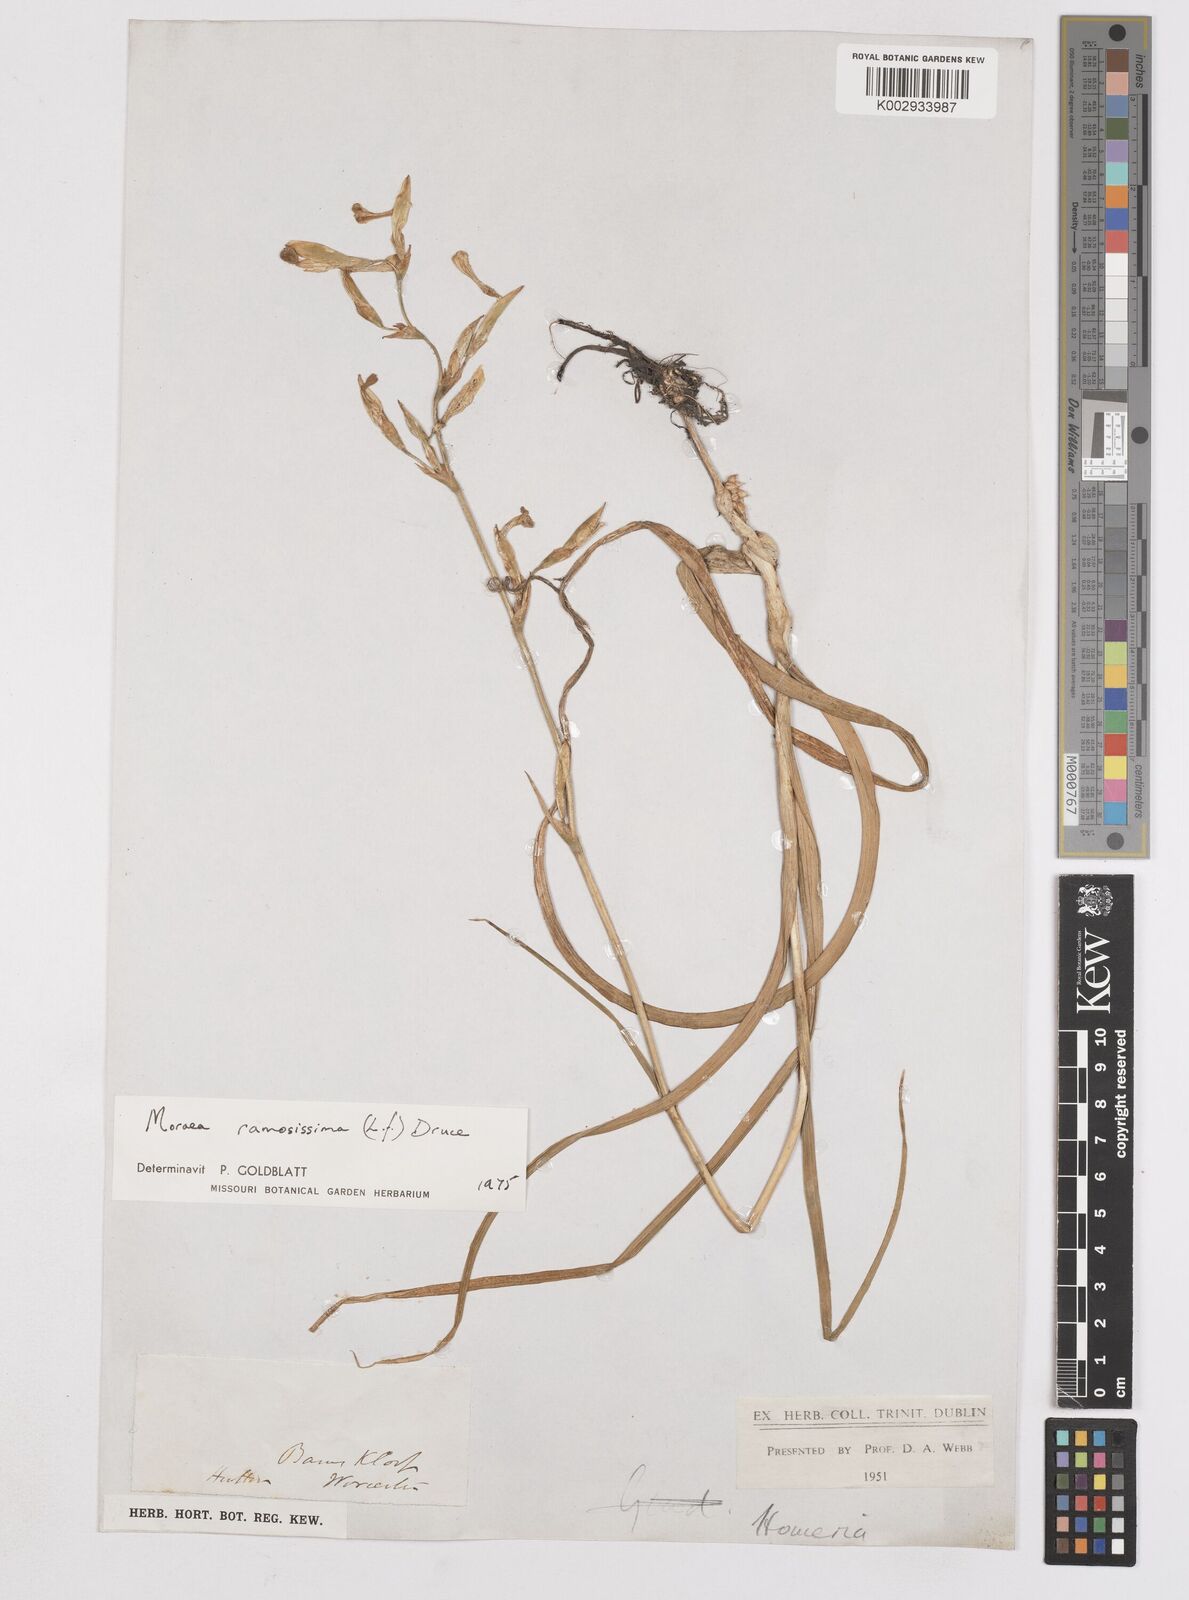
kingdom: Plantae
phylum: Tracheophyta
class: Liliopsida
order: Asparagales
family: Iridaceae
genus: Moraea
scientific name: Moraea ramosissima
